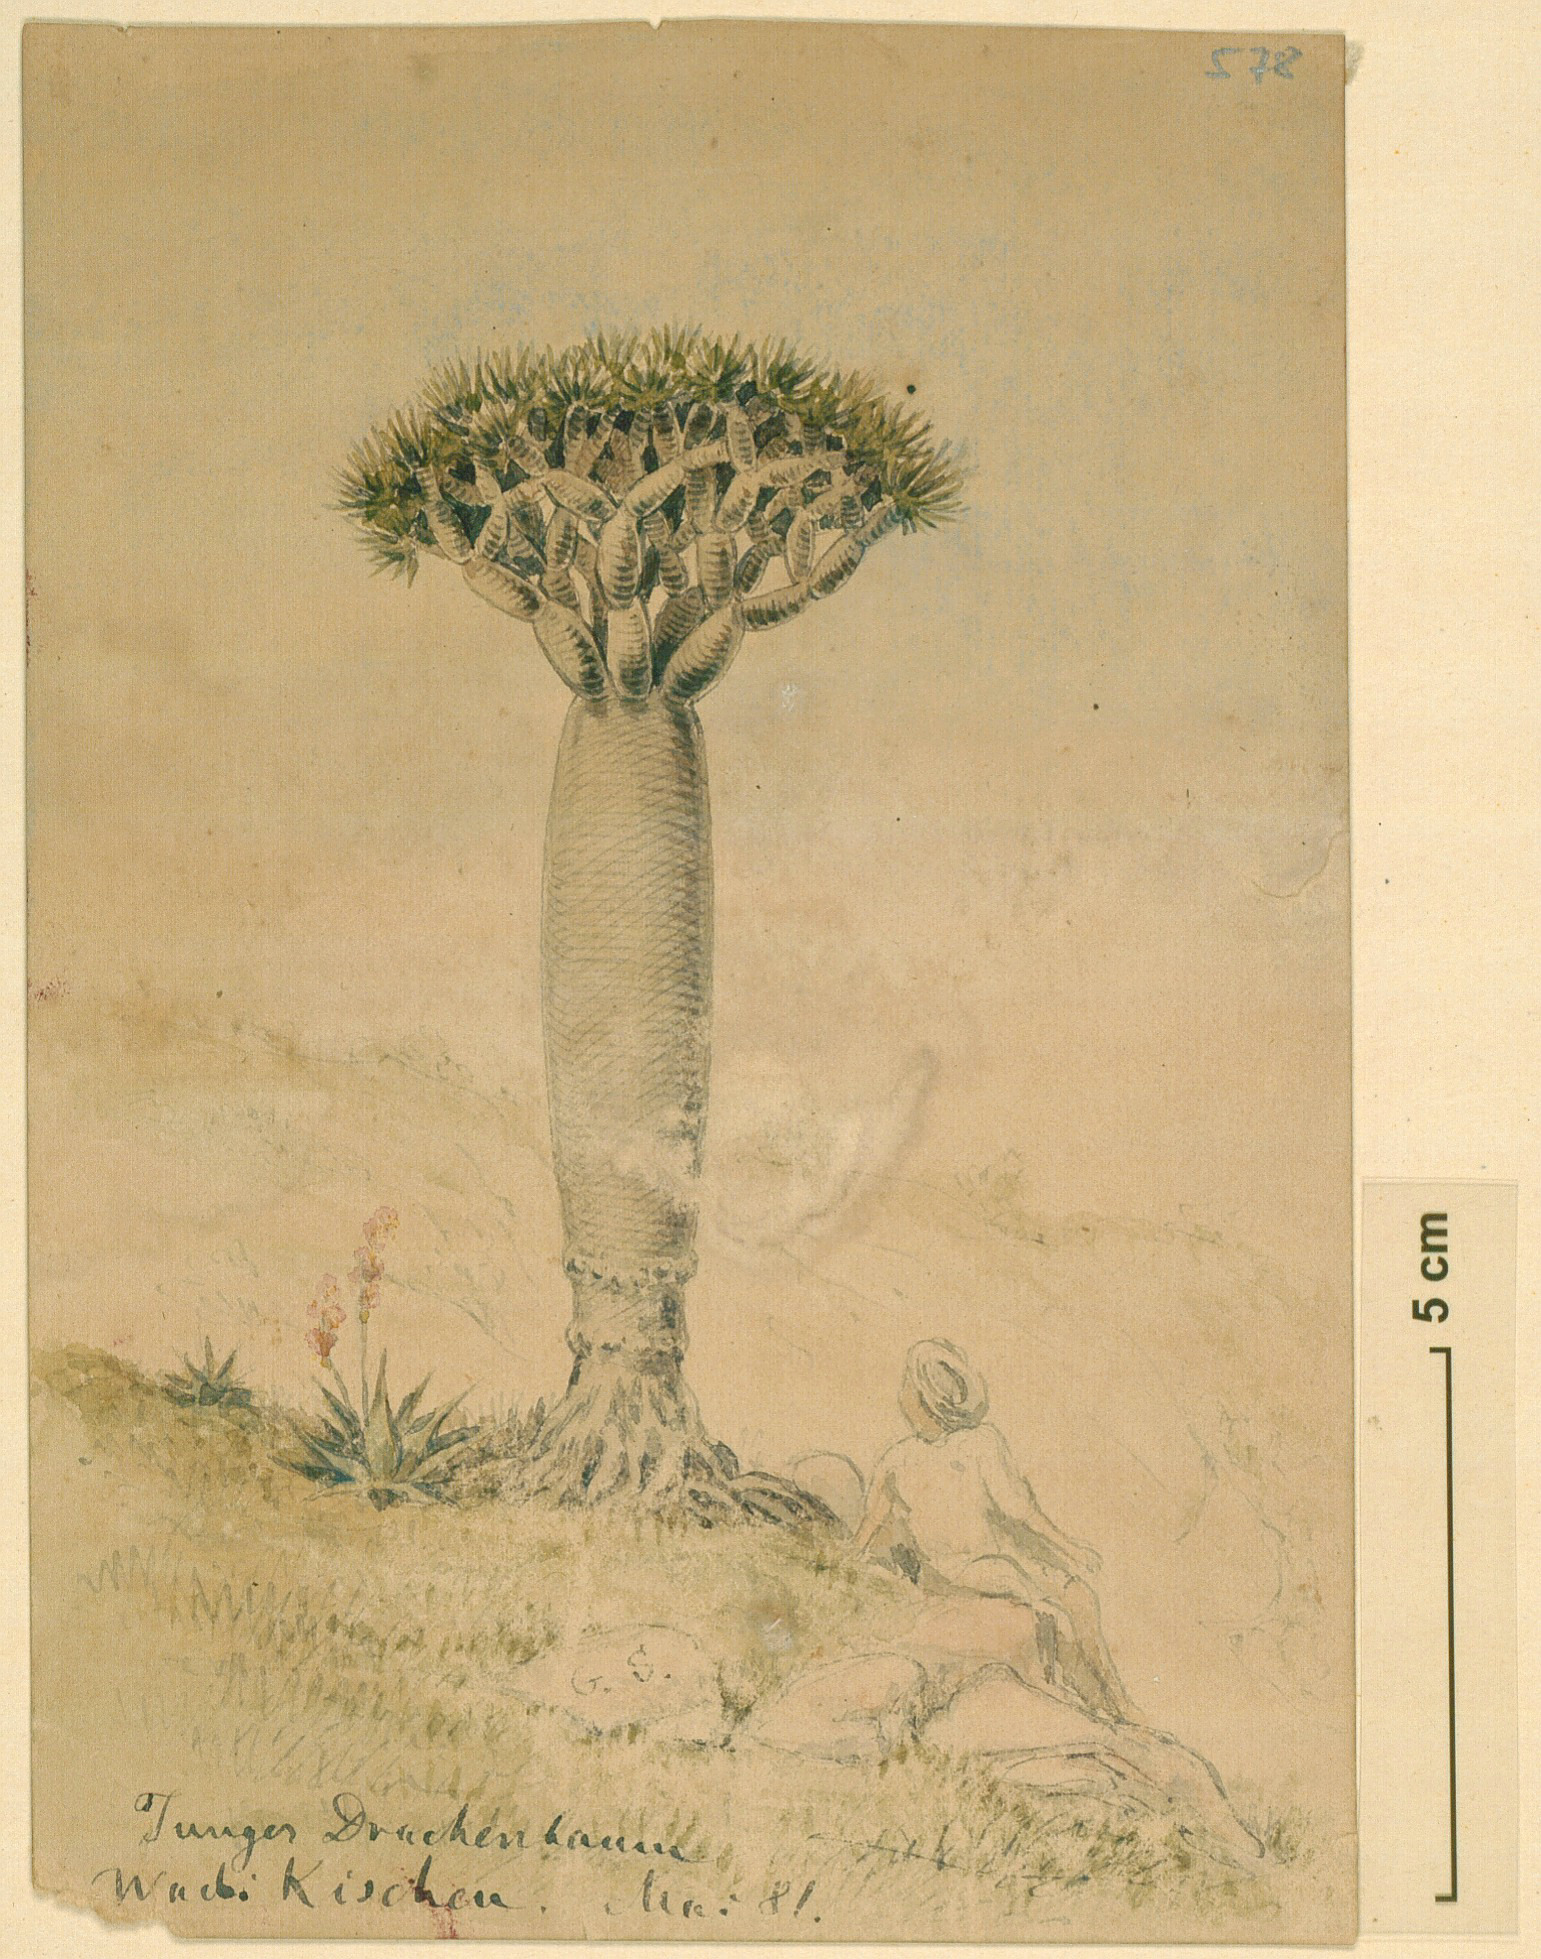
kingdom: Plantae
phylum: Tracheophyta
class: Liliopsida
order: Asparagales
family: Asparagaceae
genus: Dracaena
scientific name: Dracaena cinnabari
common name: Dragon's blood tree
